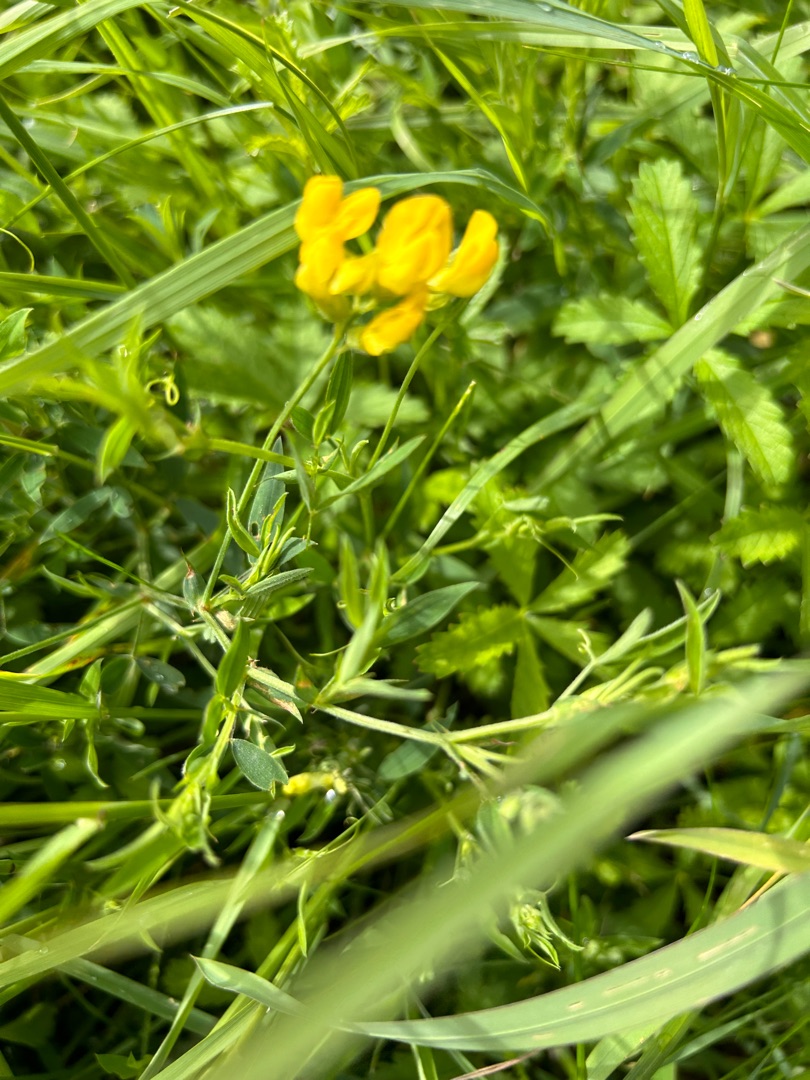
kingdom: Plantae
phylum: Tracheophyta
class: Magnoliopsida
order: Fabales
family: Fabaceae
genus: Lathyrus
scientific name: Lathyrus pratensis
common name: Gul fladbælg
